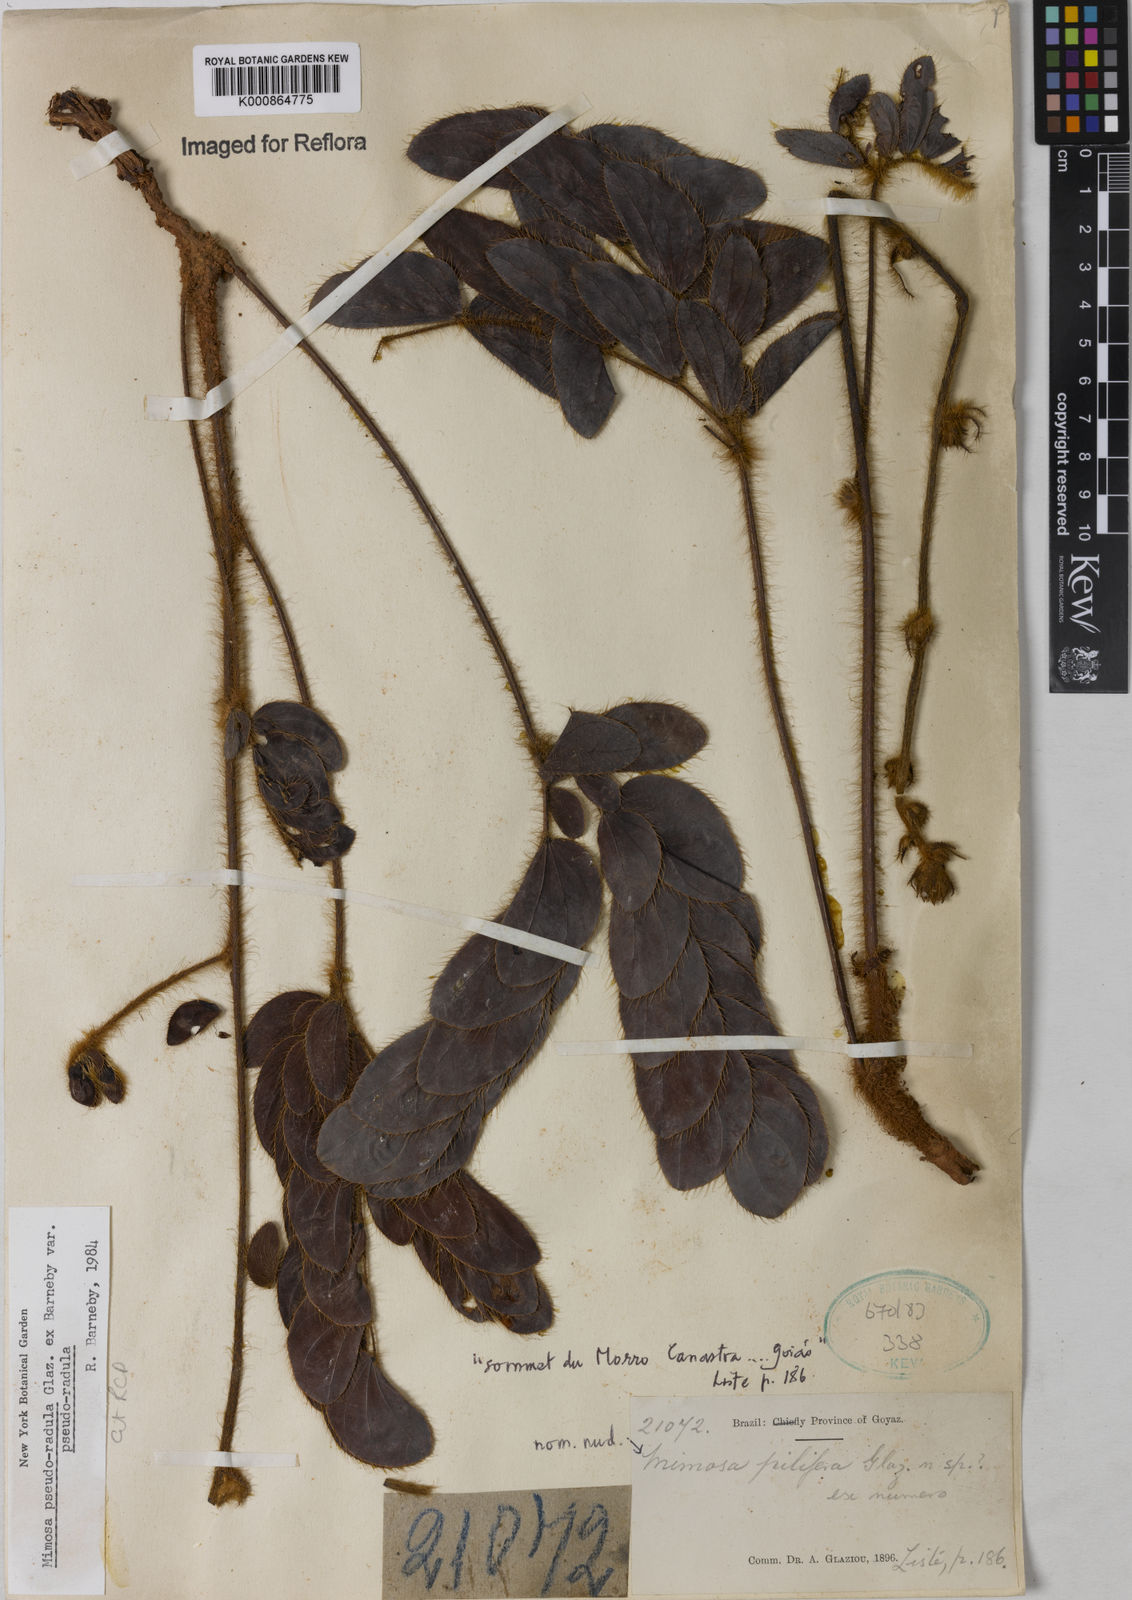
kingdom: Plantae
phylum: Tracheophyta
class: Magnoliopsida
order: Fabales
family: Fabaceae
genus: Mimosa
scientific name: Mimosa pseudoradula
